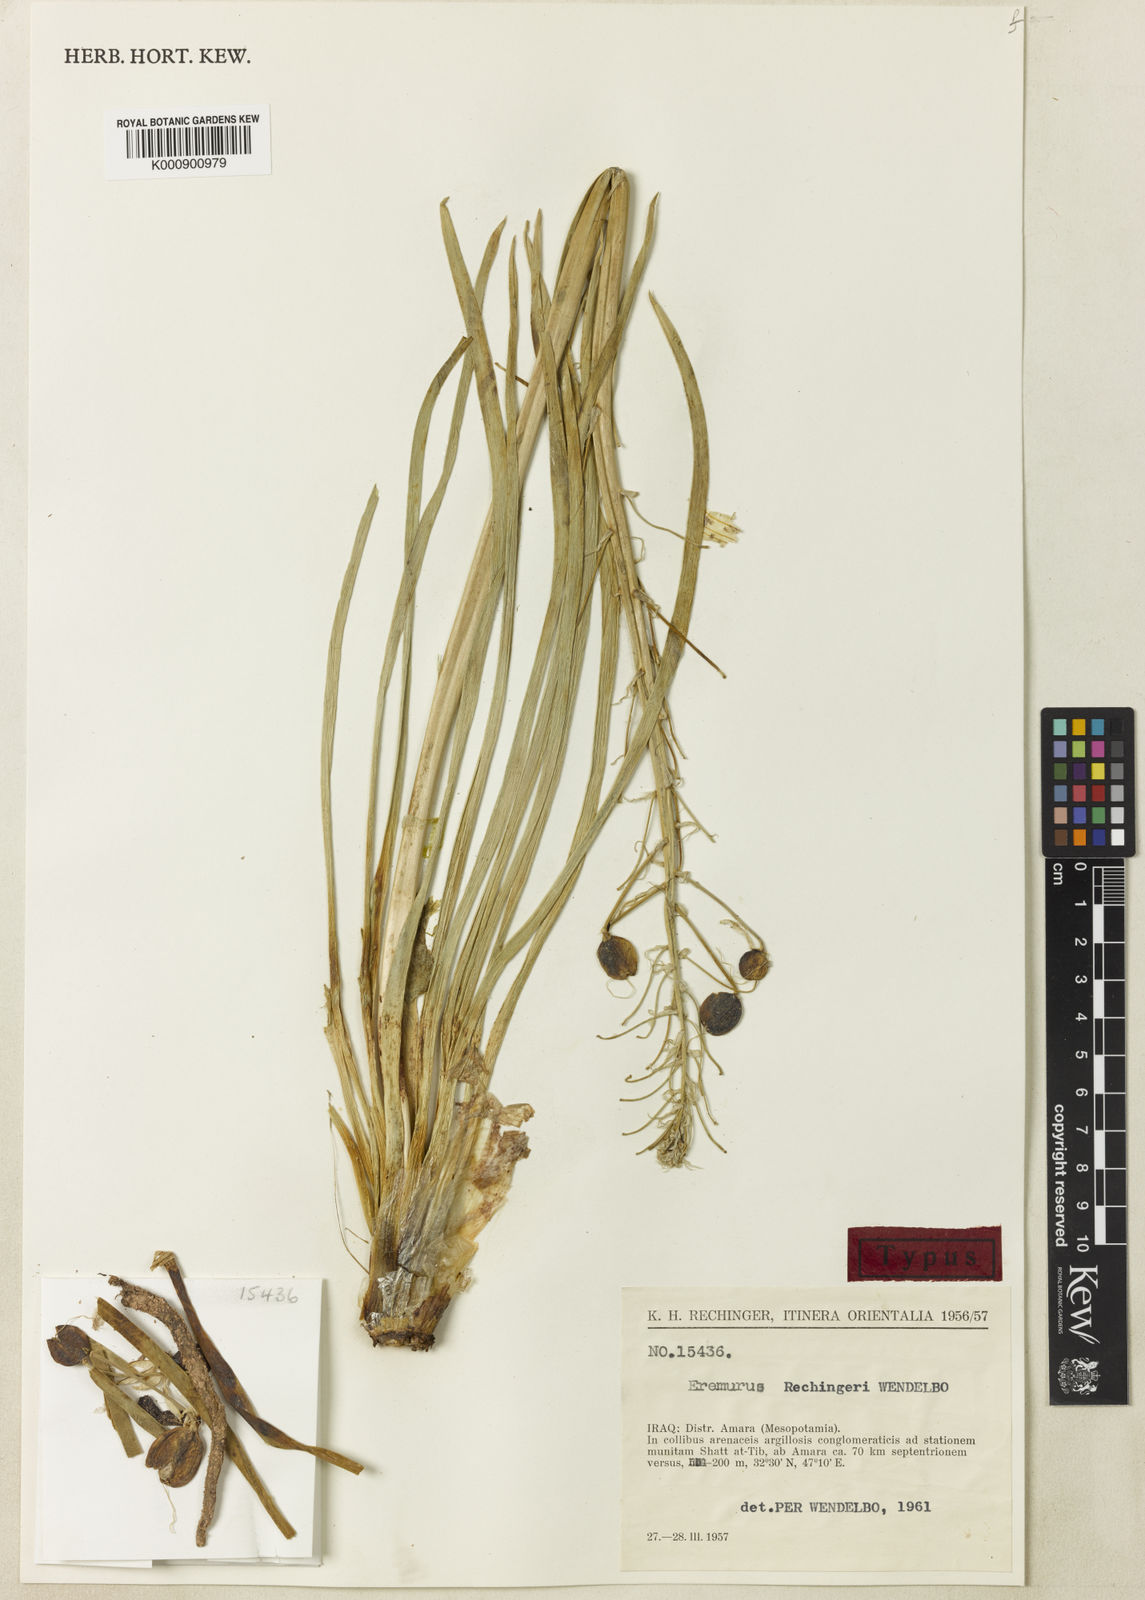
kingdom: Plantae
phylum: Tracheophyta
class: Liliopsida
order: Asparagales
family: Asphodelaceae
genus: Eremurus
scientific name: Eremurus rechingeri
